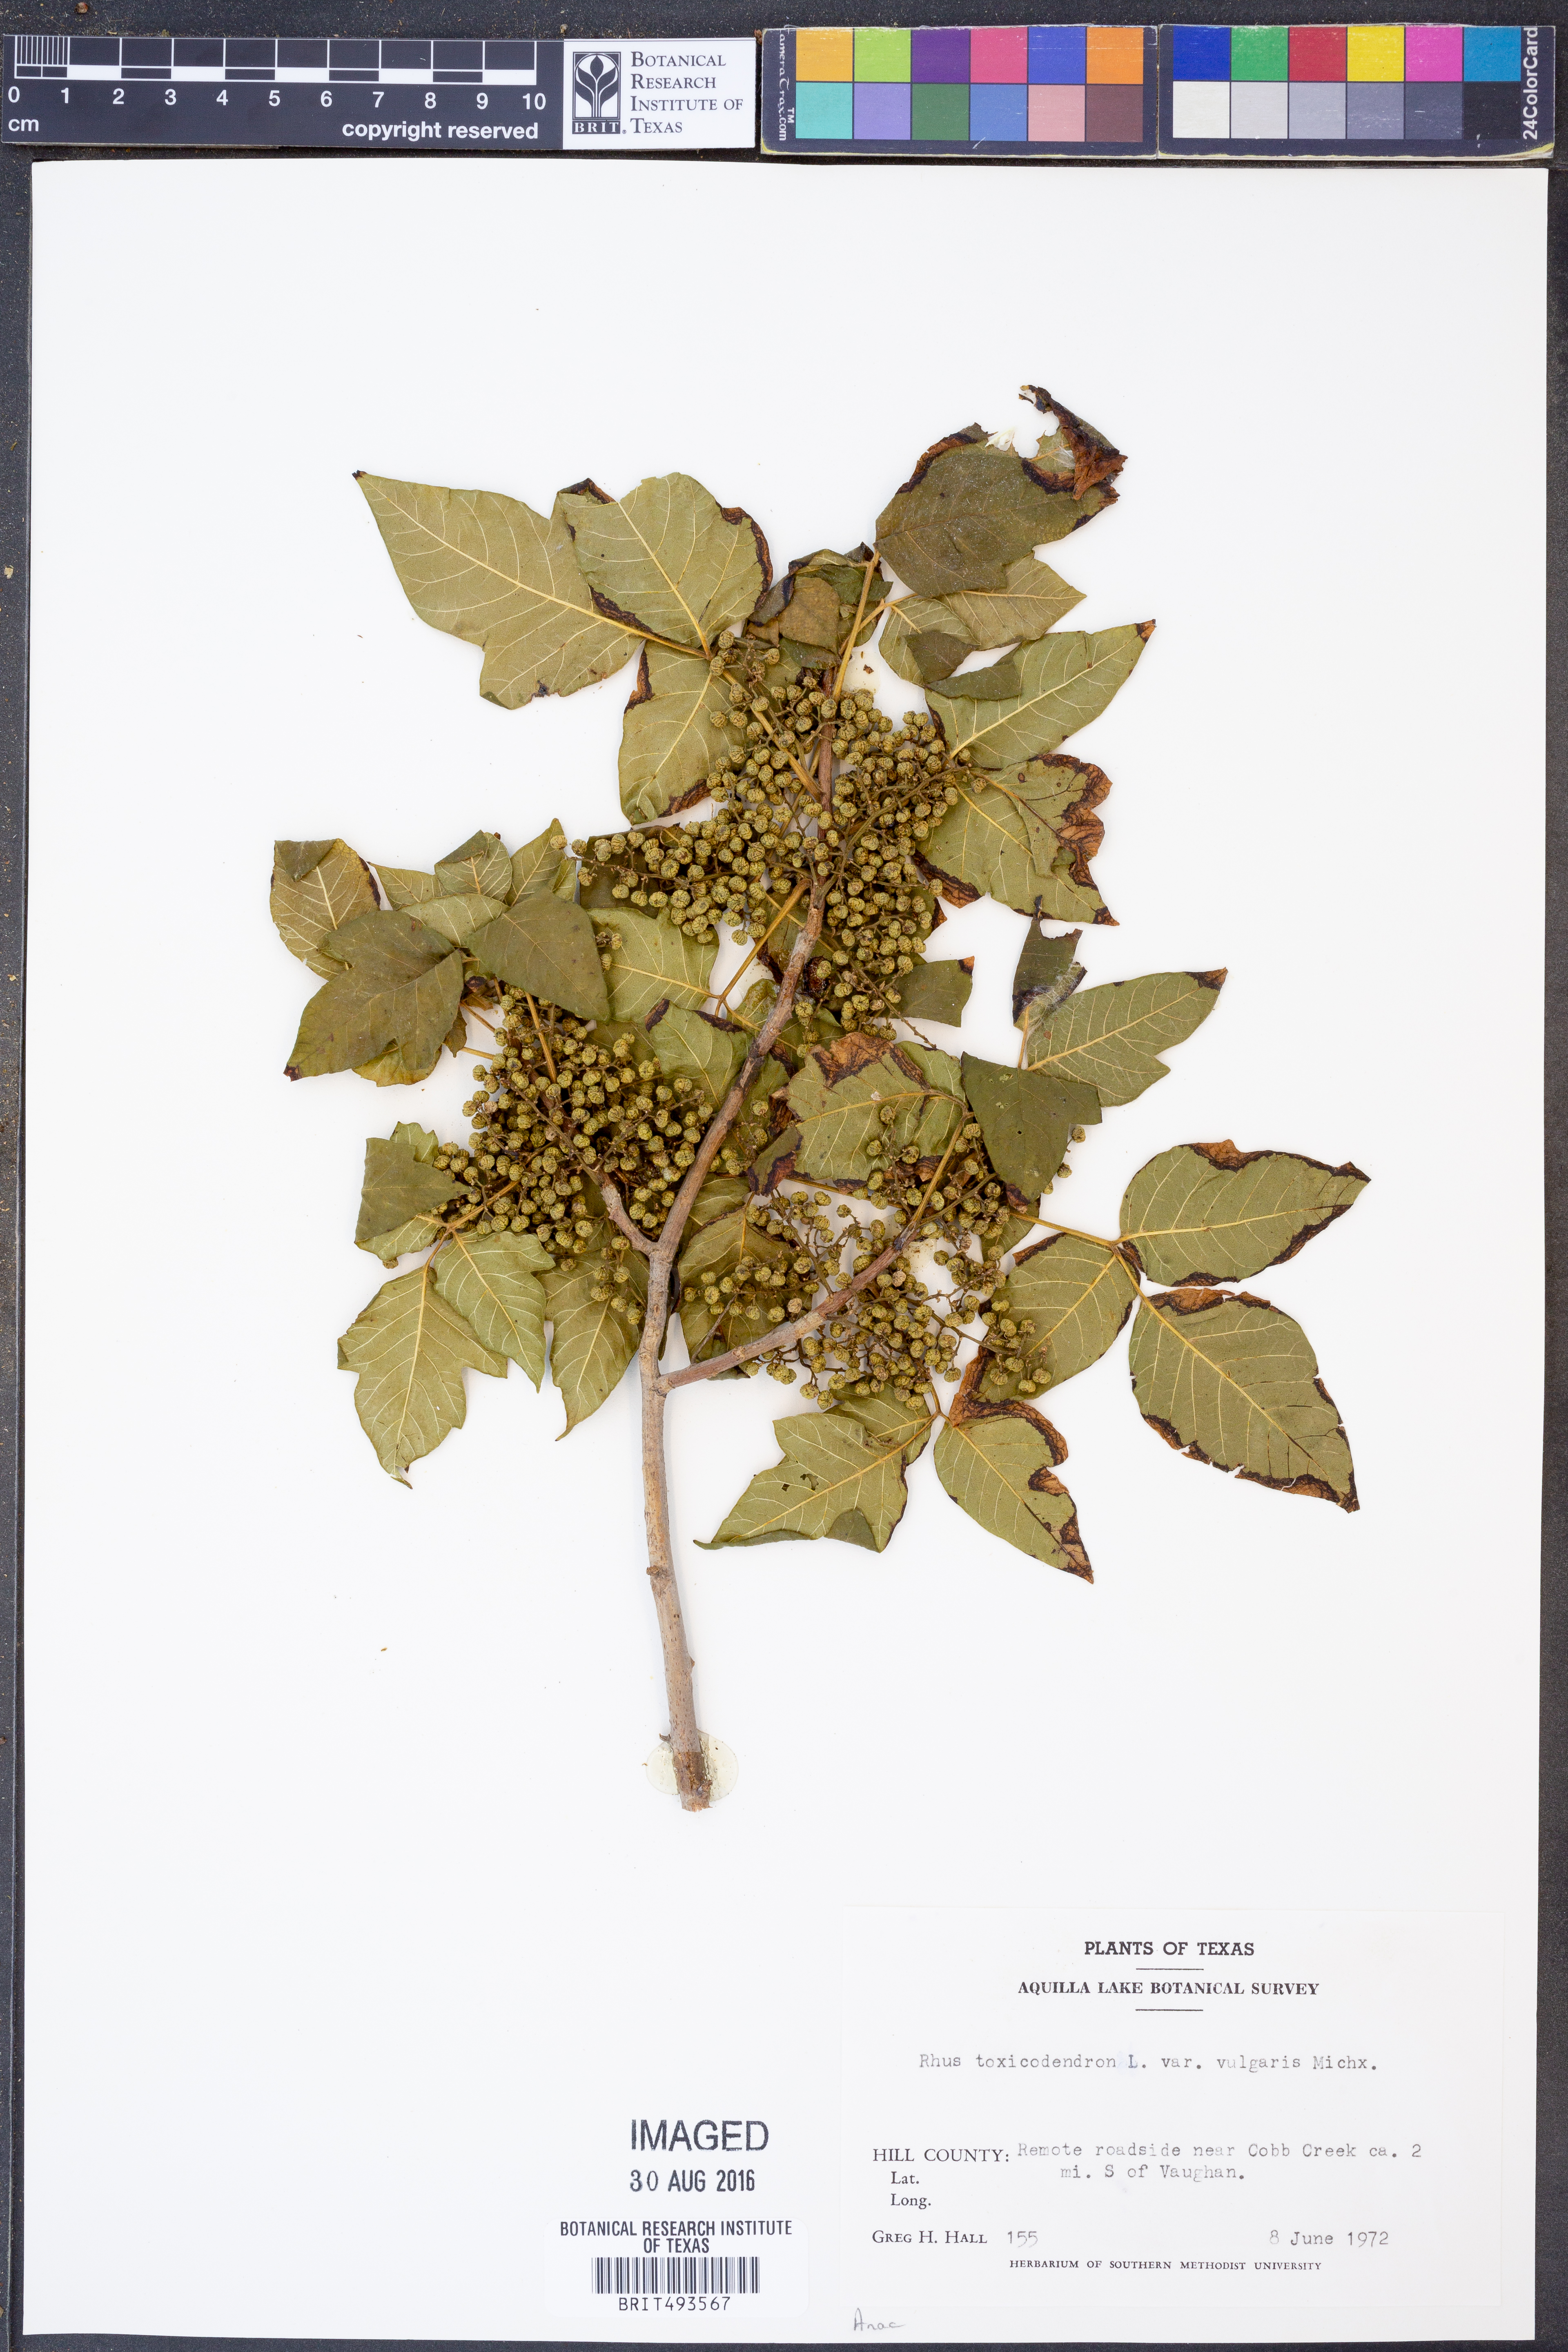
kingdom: Plantae
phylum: Tracheophyta
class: Magnoliopsida
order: Sapindales
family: Anacardiaceae
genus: Toxicodendron
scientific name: Toxicodendron rydbergii
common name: Rydberg's poison-ivy
